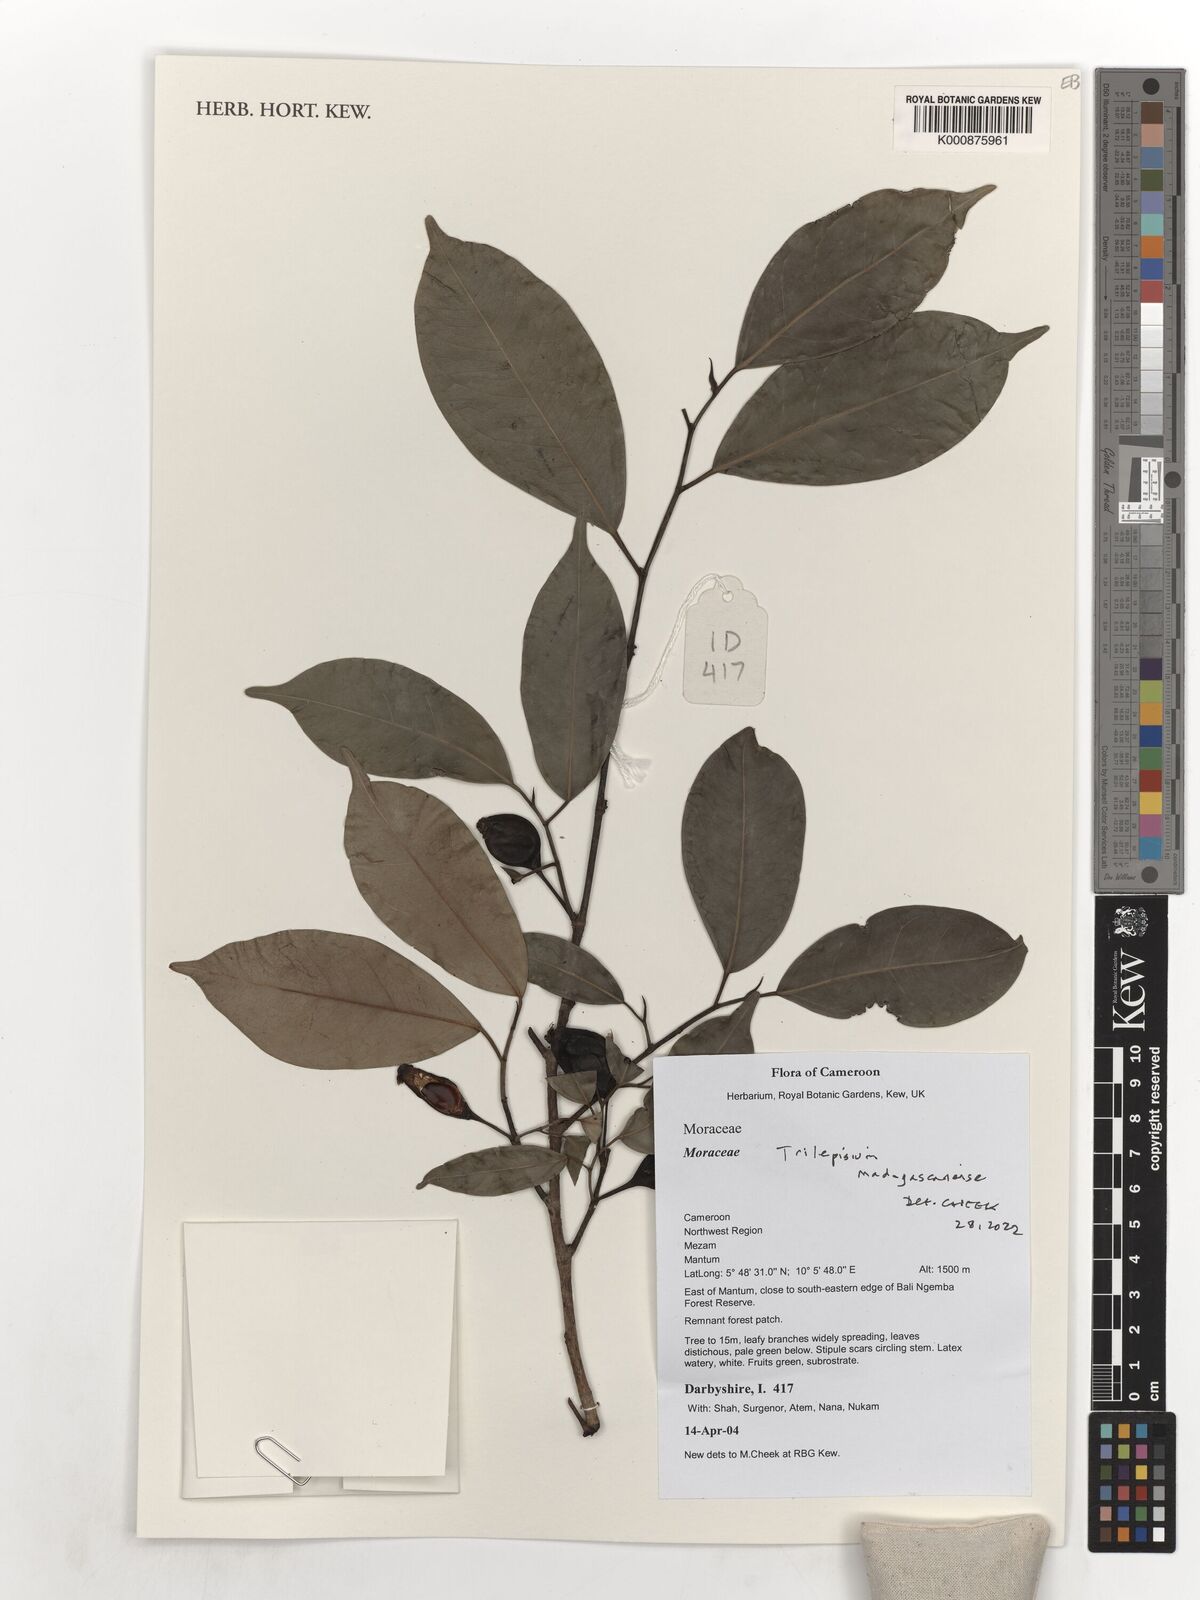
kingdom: Plantae
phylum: Tracheophyta
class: Magnoliopsida
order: Rosales
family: Moraceae
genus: Trilepisium
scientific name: Trilepisium madagascariense
